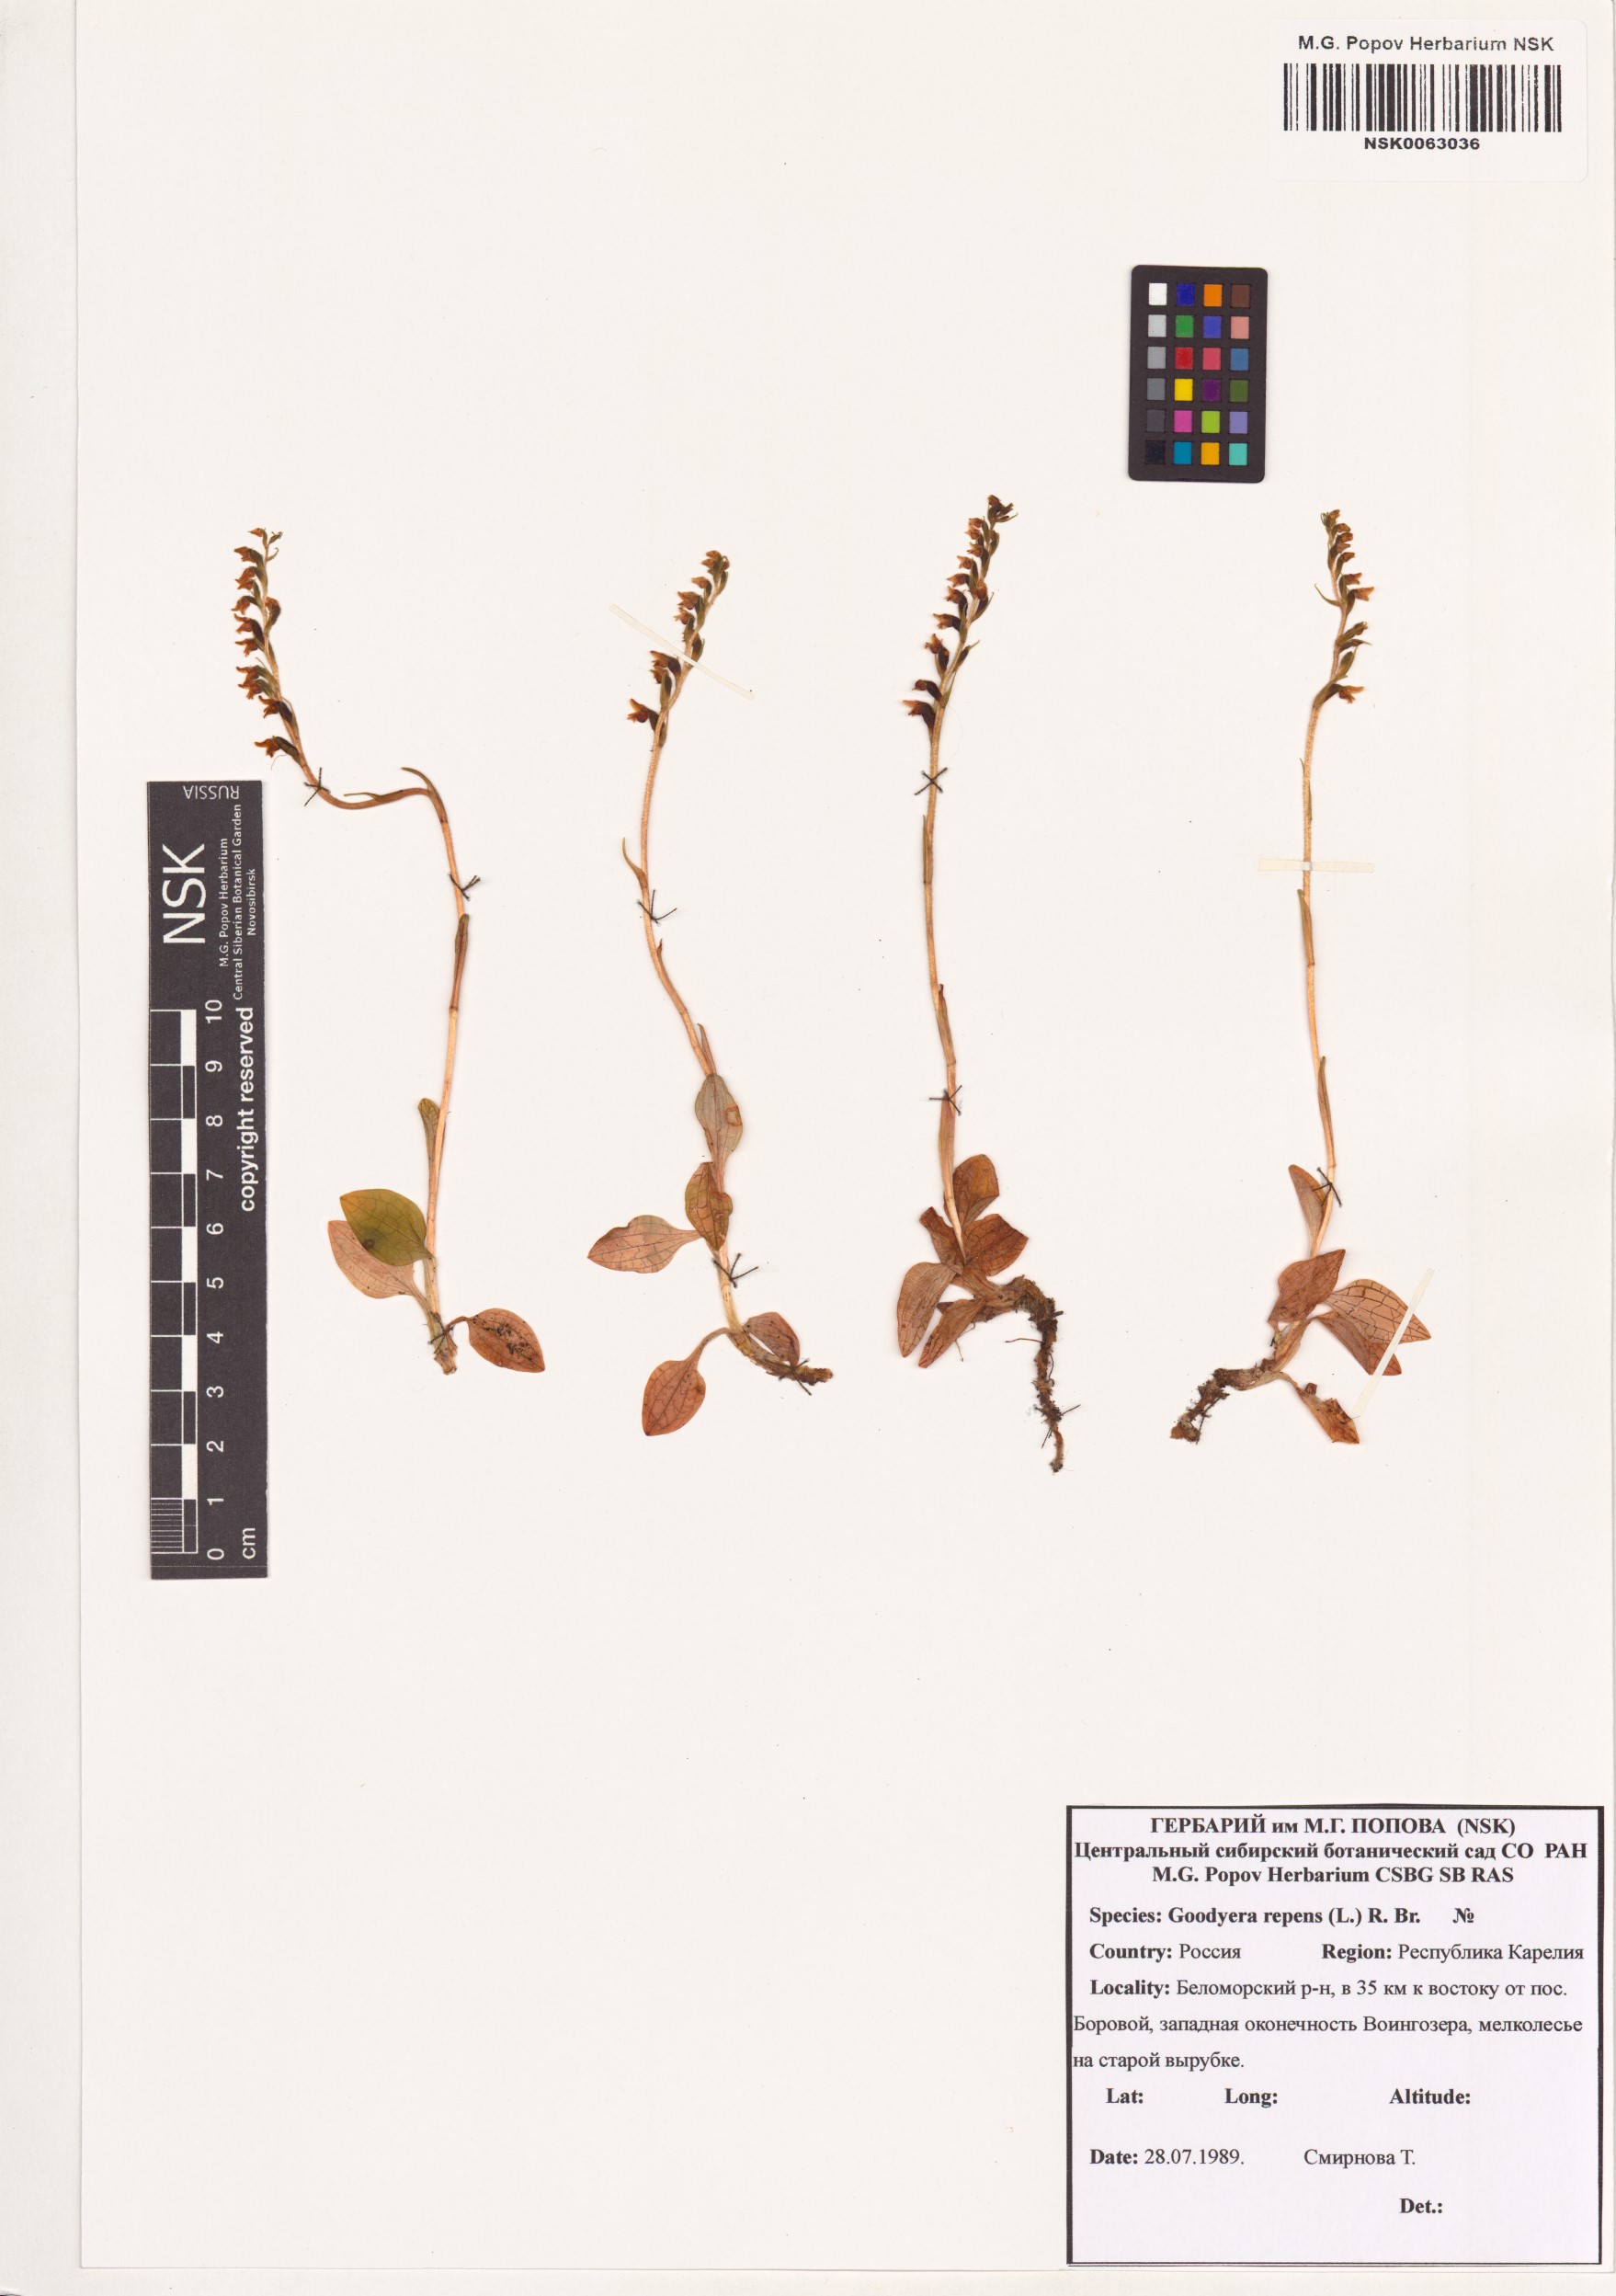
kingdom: Plantae
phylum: Tracheophyta
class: Liliopsida
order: Asparagales
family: Orchidaceae
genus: Goodyera
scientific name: Goodyera repens
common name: Creeping lady's-tresses
